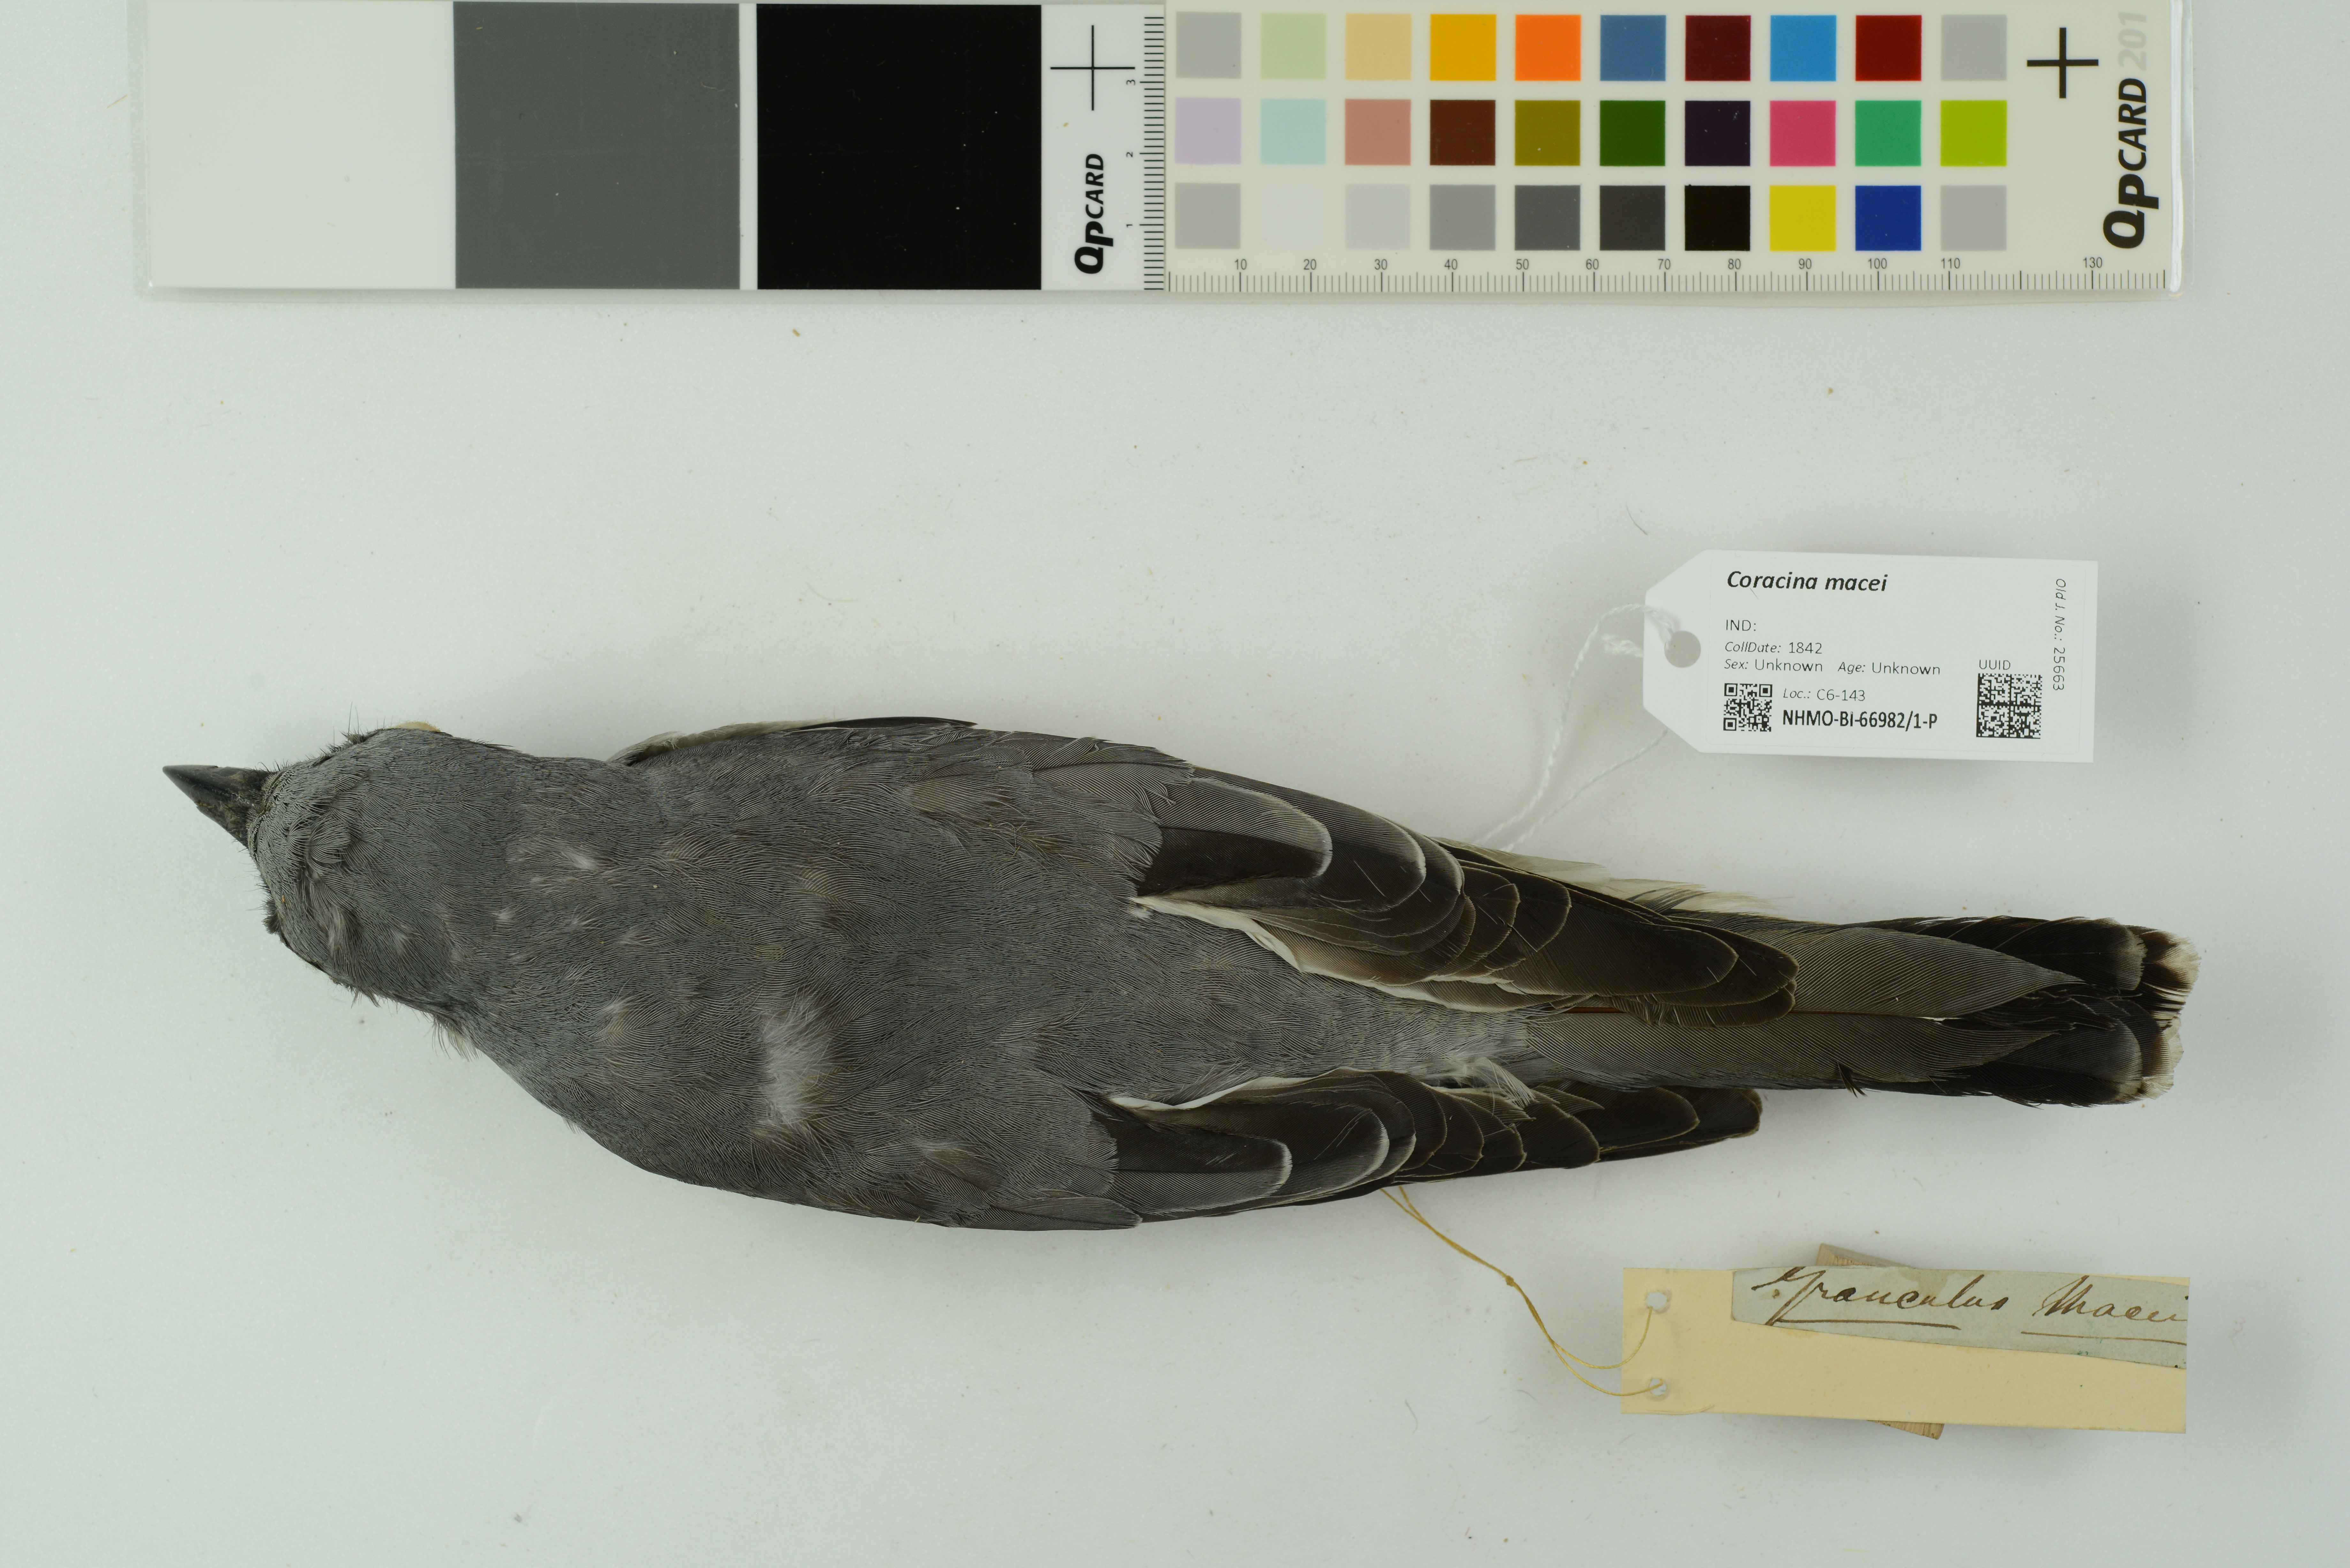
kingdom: Animalia
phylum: Chordata
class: Aves
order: Passeriformes
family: Campephagidae
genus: Coracina
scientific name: Coracina macei
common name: Large cuckooshrike
